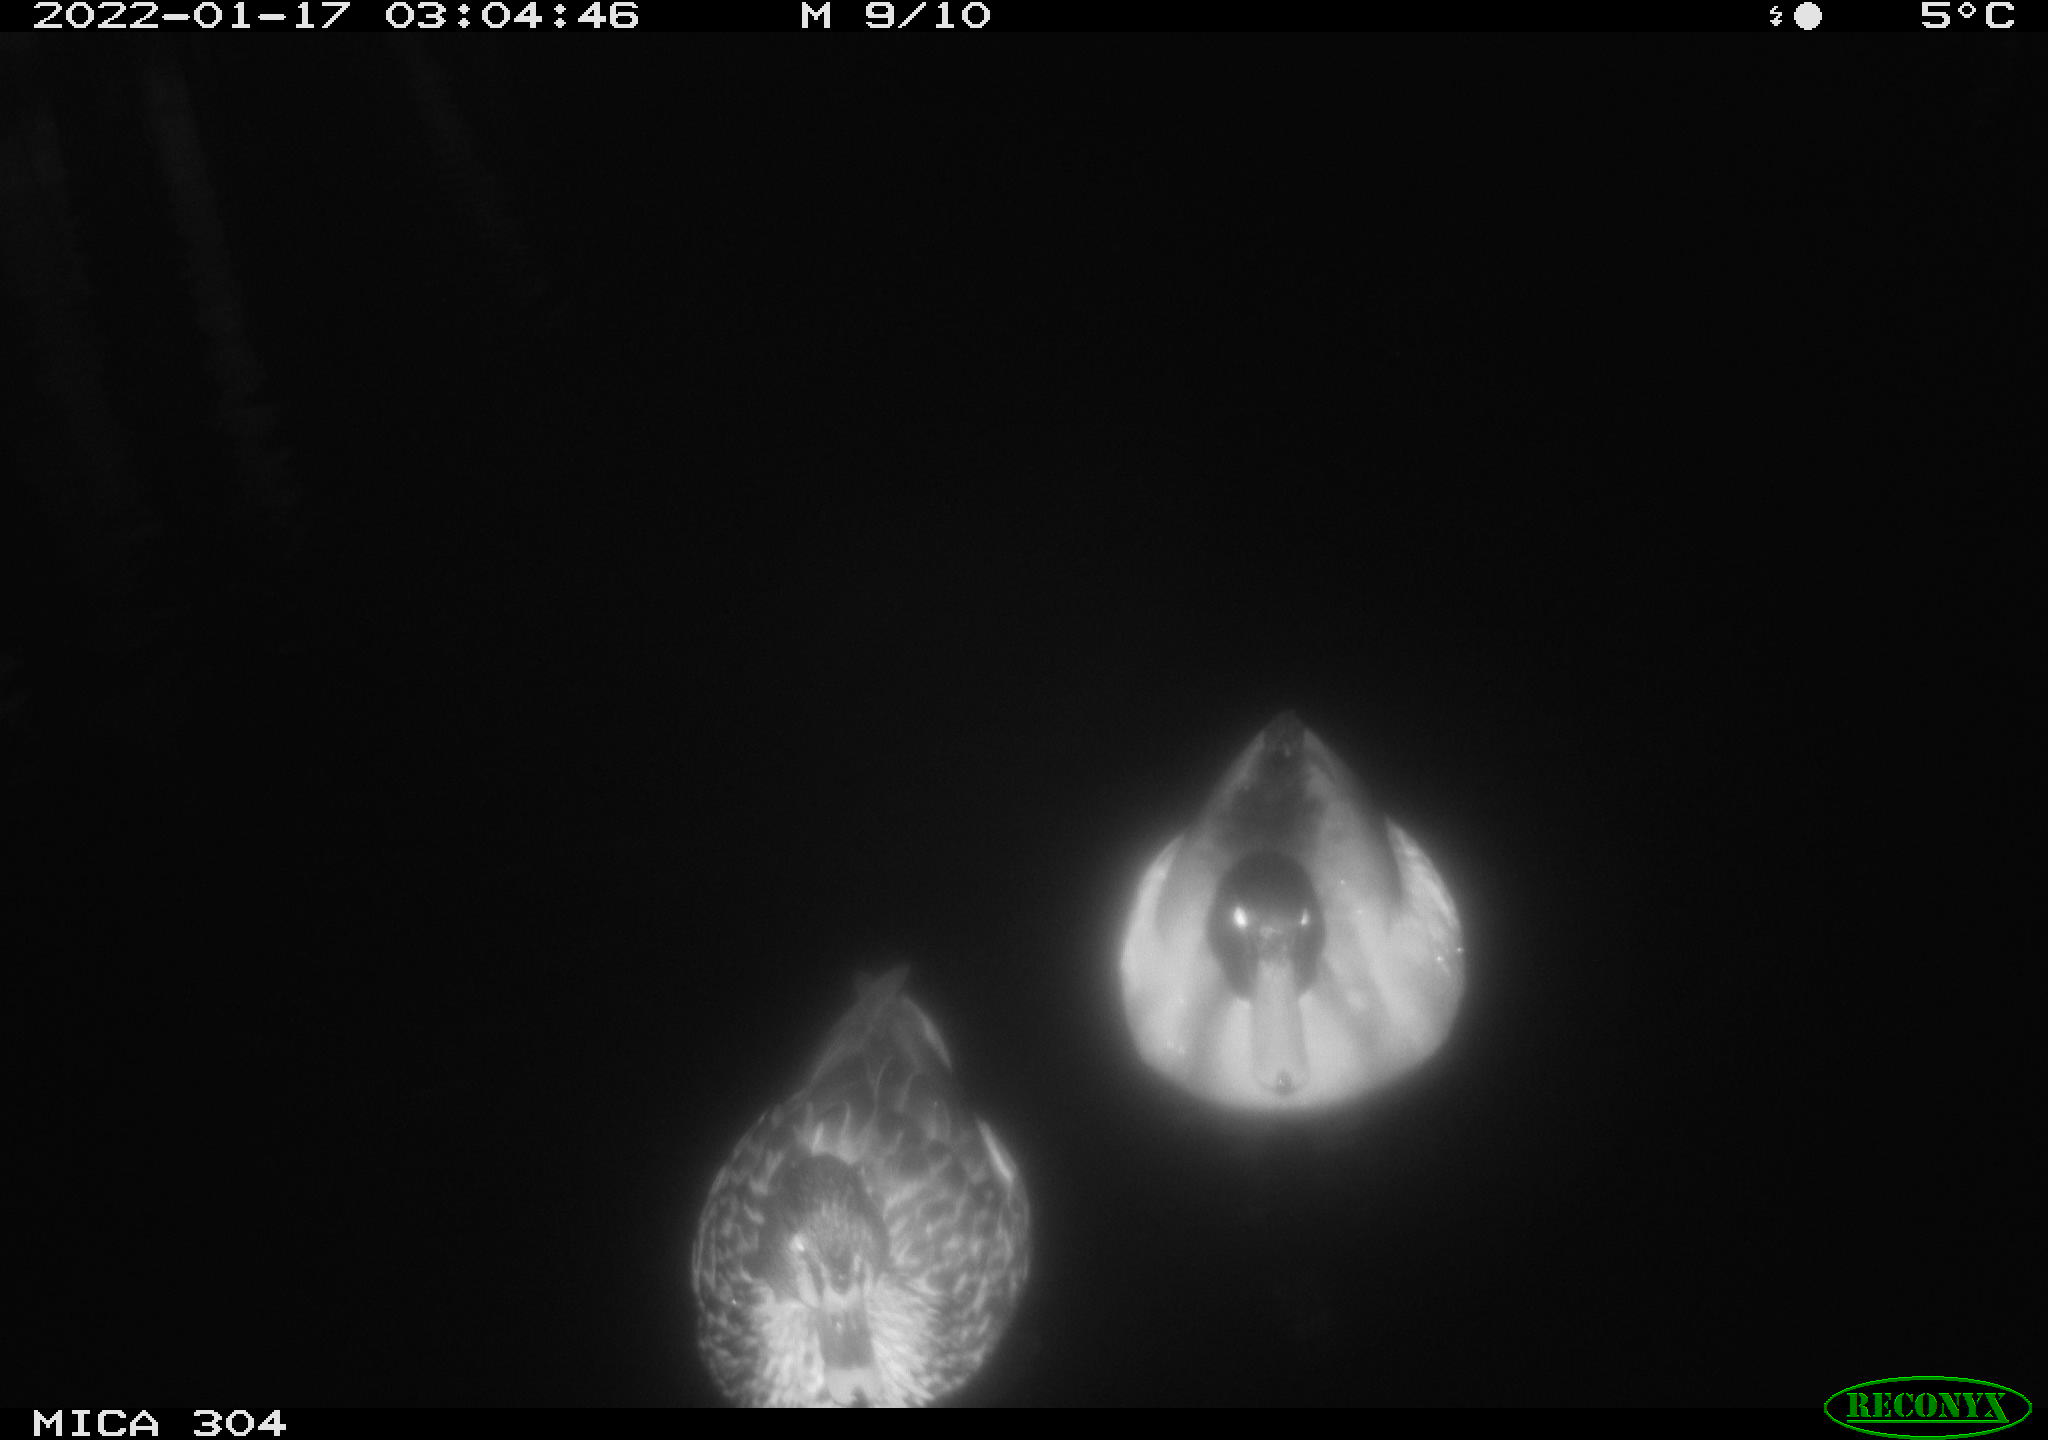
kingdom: Animalia
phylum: Chordata
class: Aves
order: Anseriformes
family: Anatidae
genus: Anas
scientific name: Anas
